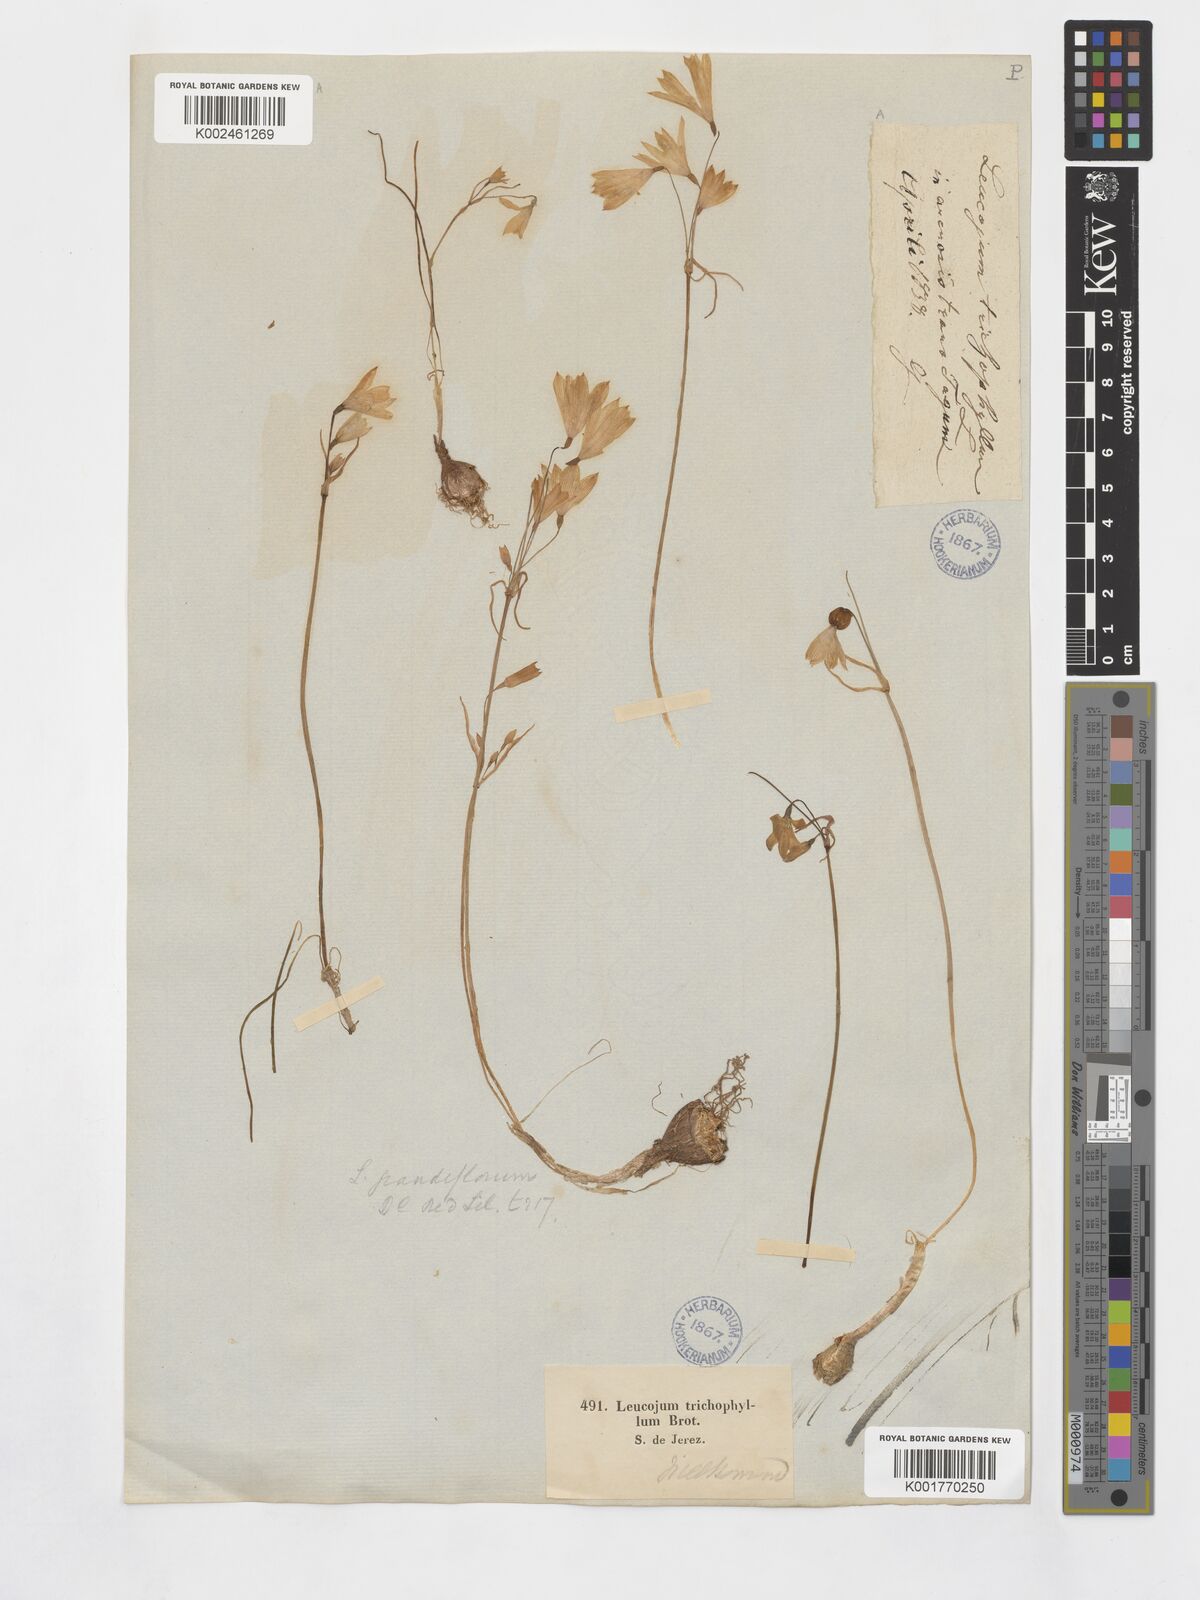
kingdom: Plantae
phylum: Tracheophyta
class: Liliopsida
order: Asparagales
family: Amaryllidaceae
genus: Acis
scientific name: Acis trichophylla
